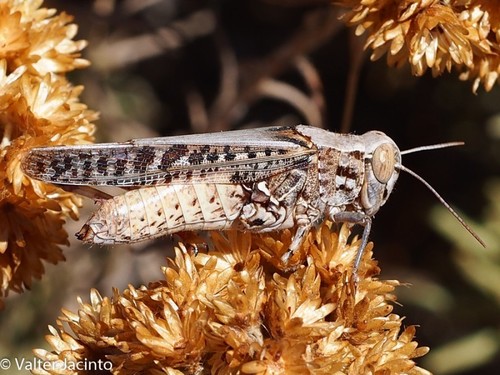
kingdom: Animalia
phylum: Arthropoda
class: Insecta
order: Orthoptera
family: Acrididae
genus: Calliptamus
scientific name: Calliptamus barbarus
